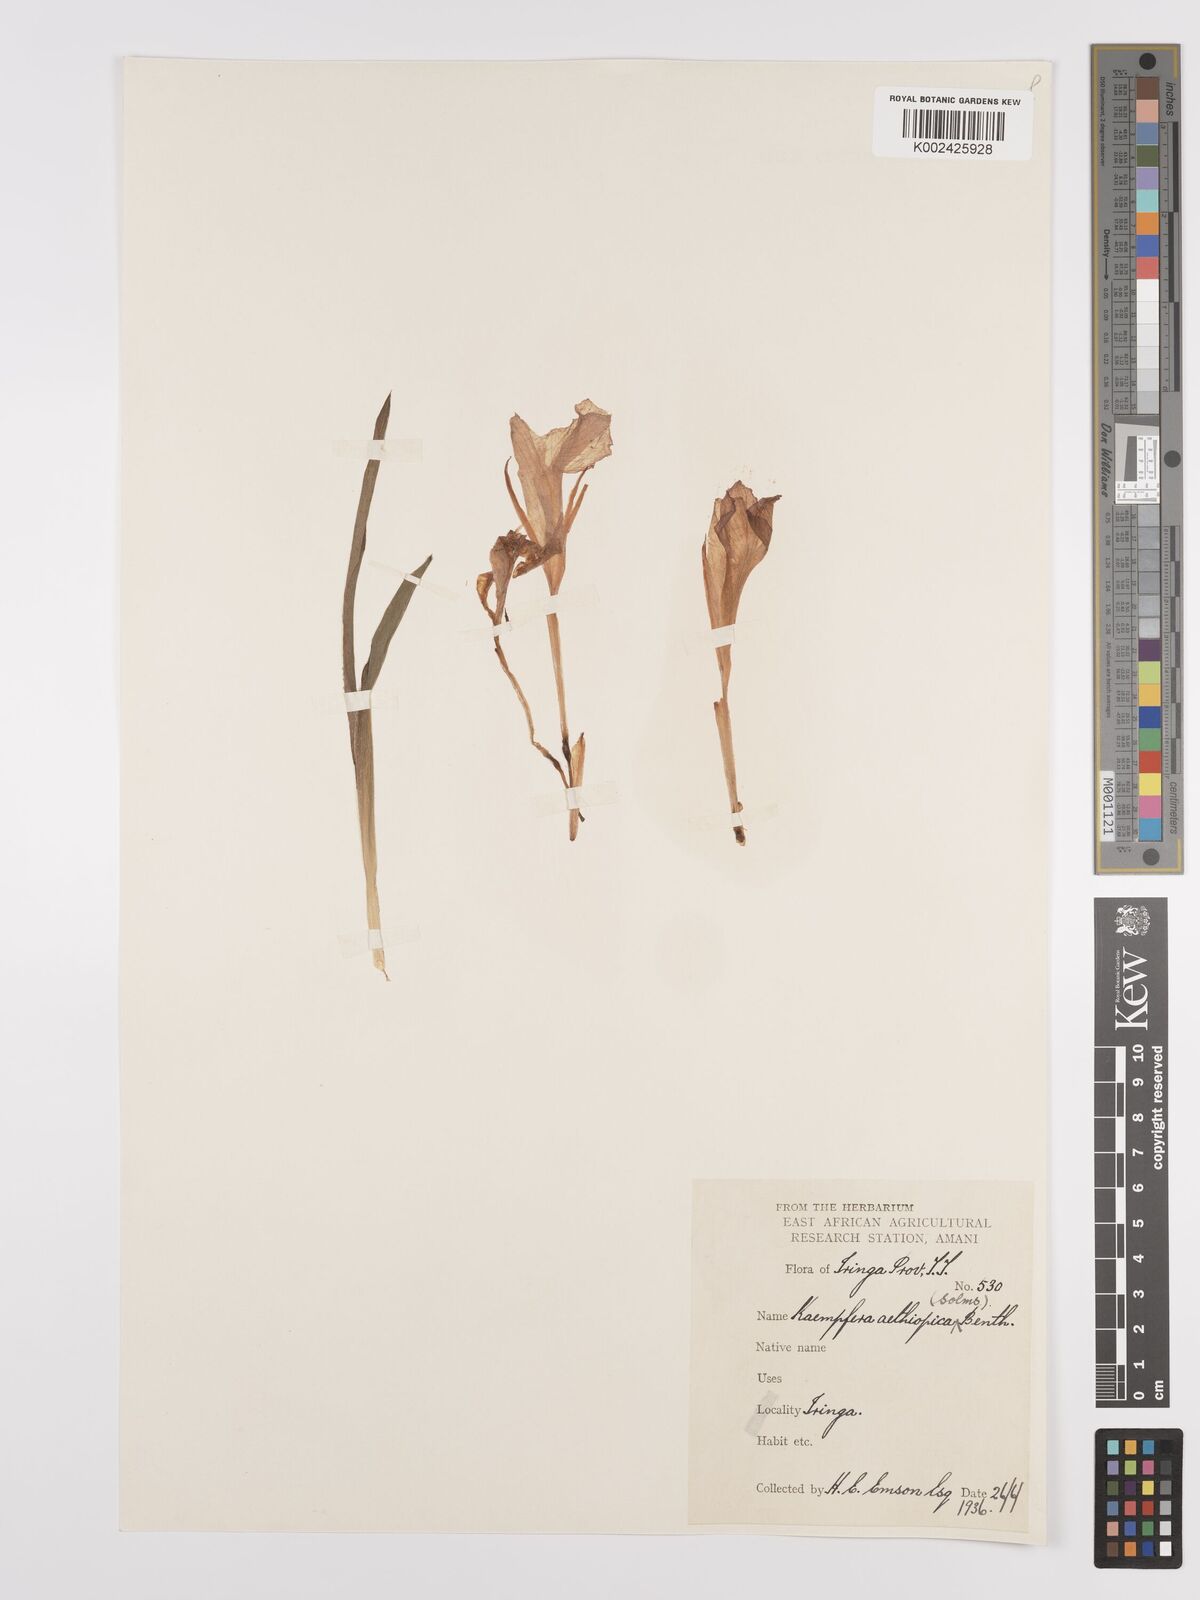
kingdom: Plantae
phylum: Tracheophyta
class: Liliopsida
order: Zingiberales
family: Zingiberaceae
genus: Siphonochilus
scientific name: Siphonochilus aethiopicus
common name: African-ginger
